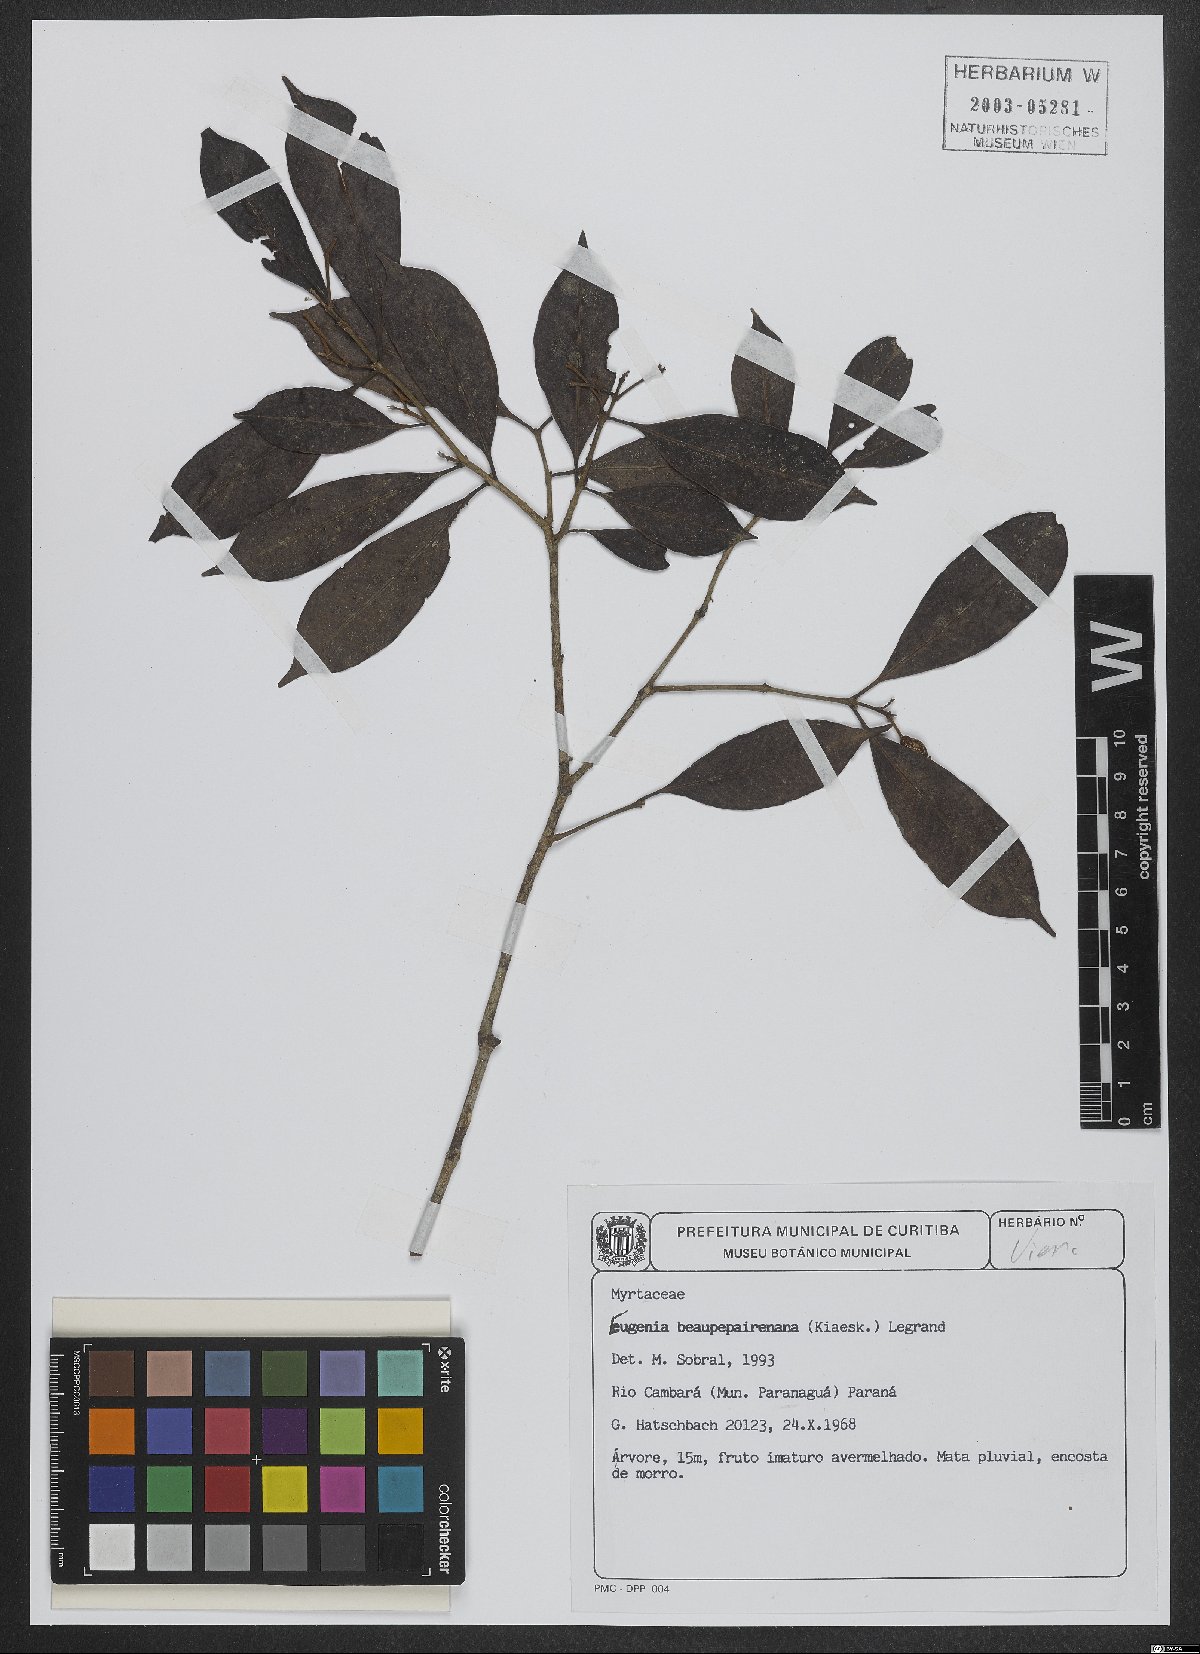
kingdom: Plantae
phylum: Tracheophyta
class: Magnoliopsida
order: Myrtales
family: Myrtaceae
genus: Eugenia
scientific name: Eugenia ternatifolia
